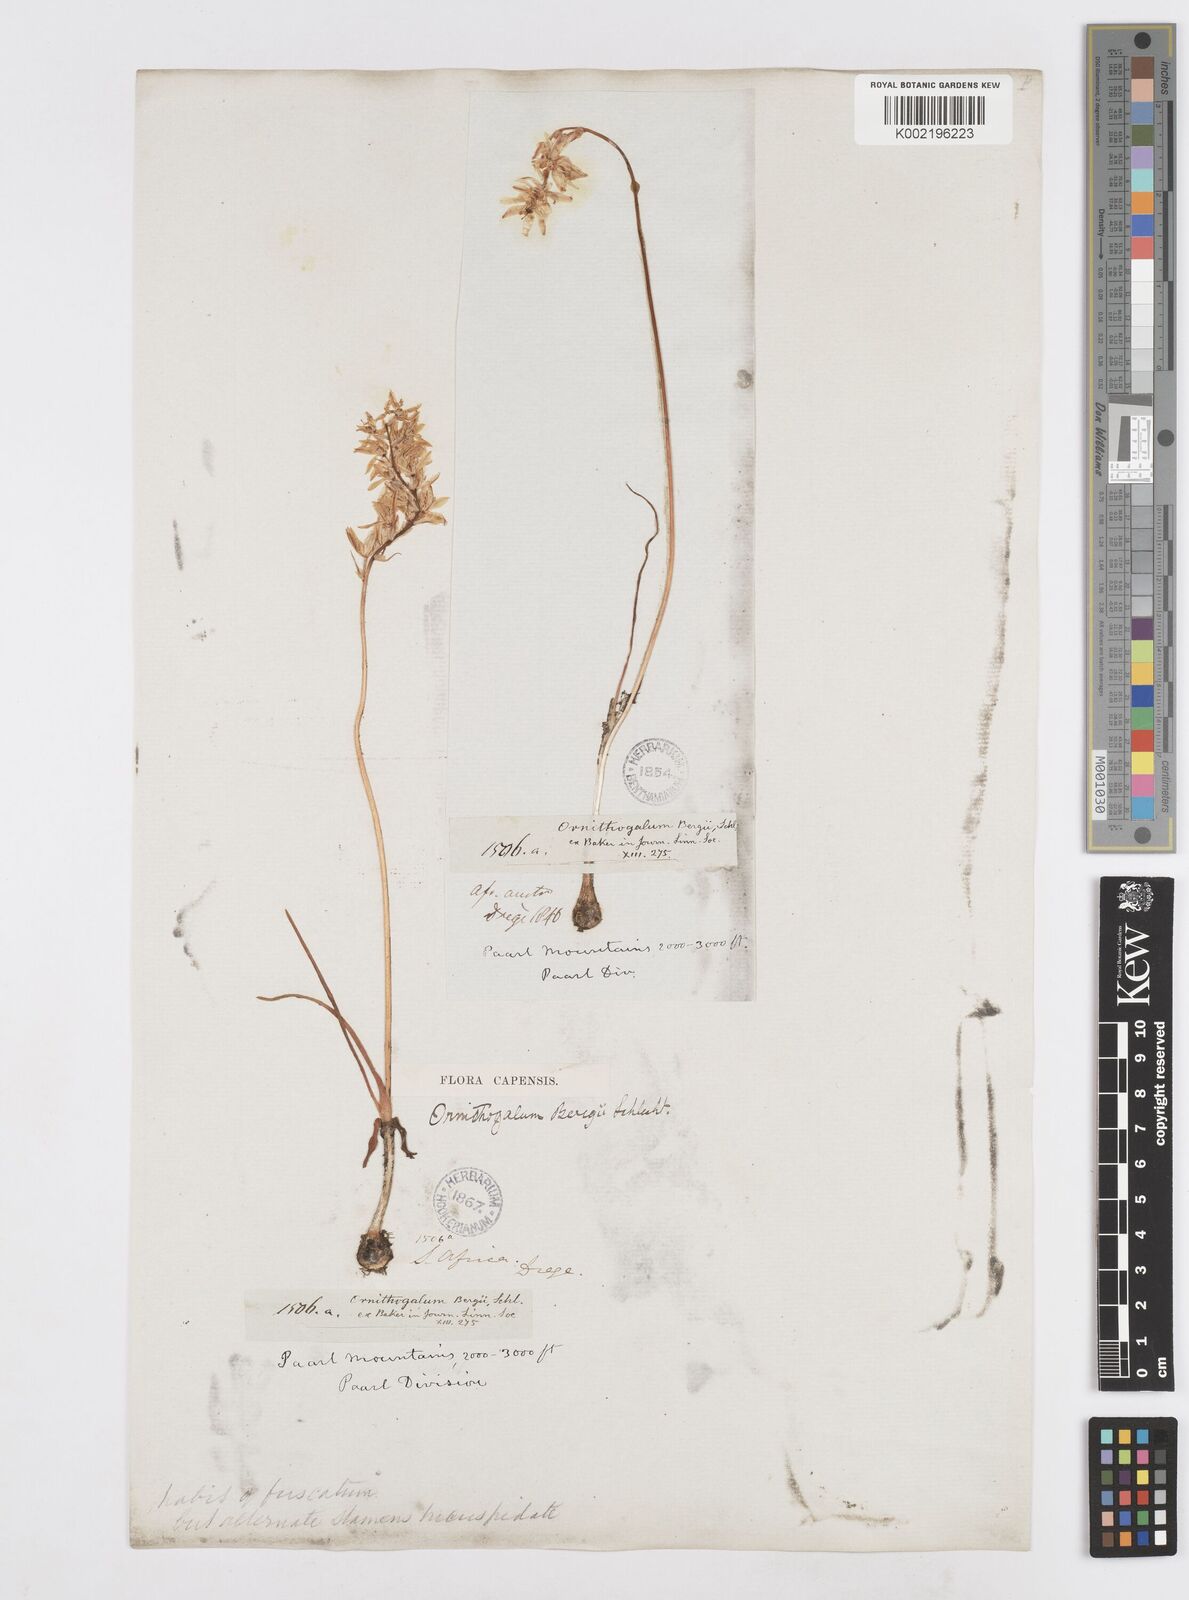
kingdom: Plantae
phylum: Tracheophyta
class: Liliopsida
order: Asparagales
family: Asparagaceae
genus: Ornithogalum
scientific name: Ornithogalum hispidum
